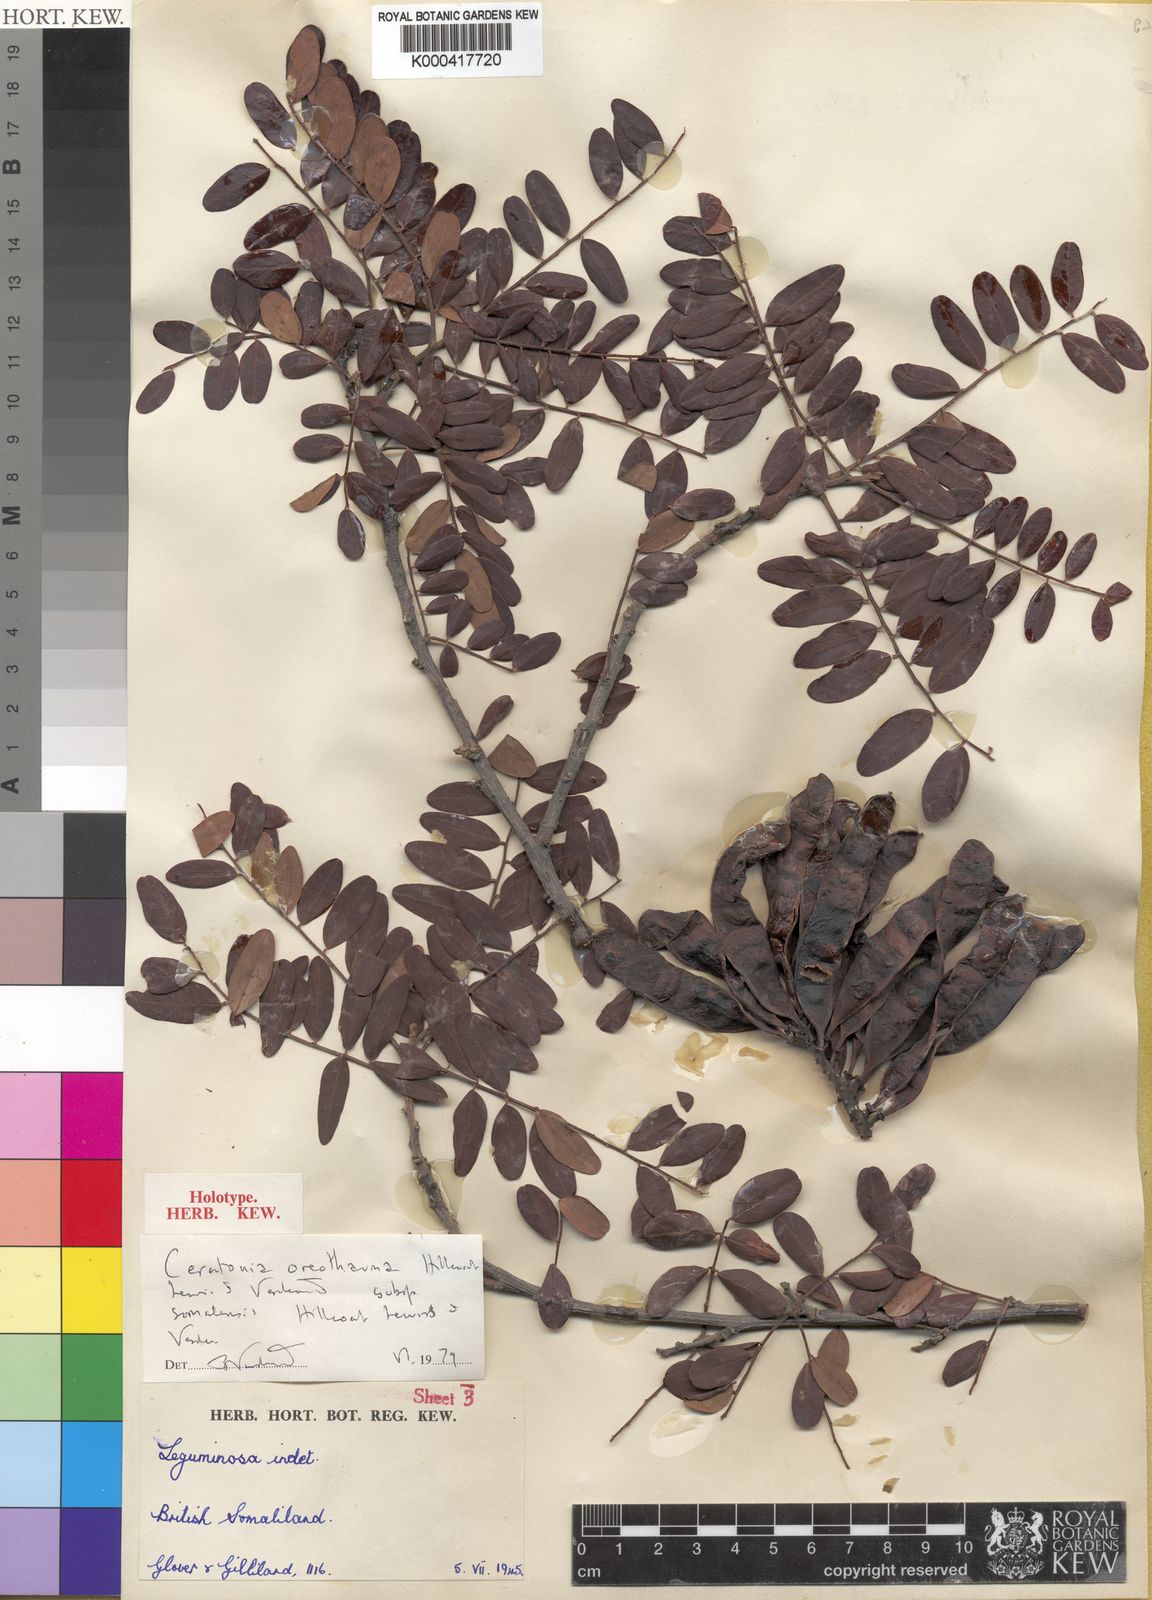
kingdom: Plantae
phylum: Tracheophyta
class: Magnoliopsida
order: Fabales
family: Fabaceae
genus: Ceratonia
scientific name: Ceratonia oreothauma
